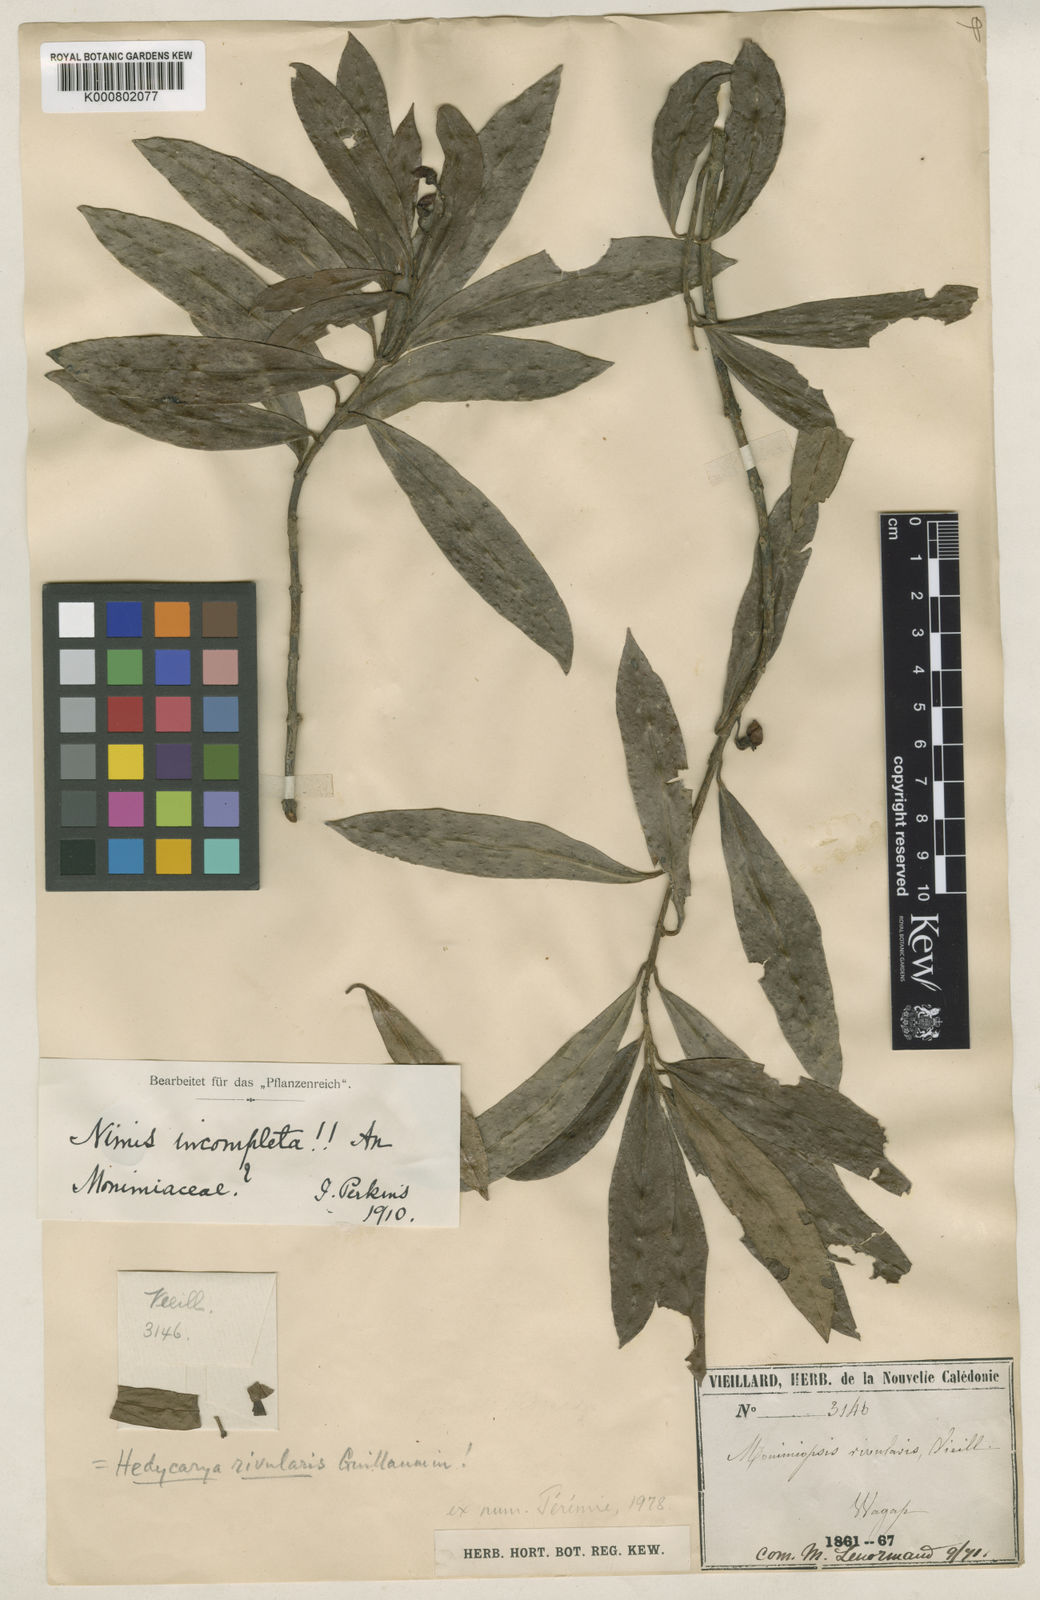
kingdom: Plantae
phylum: Tracheophyta
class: Magnoliopsida
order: Laurales
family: Monimiaceae
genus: Hedycarya
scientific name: Hedycarya rivularis
